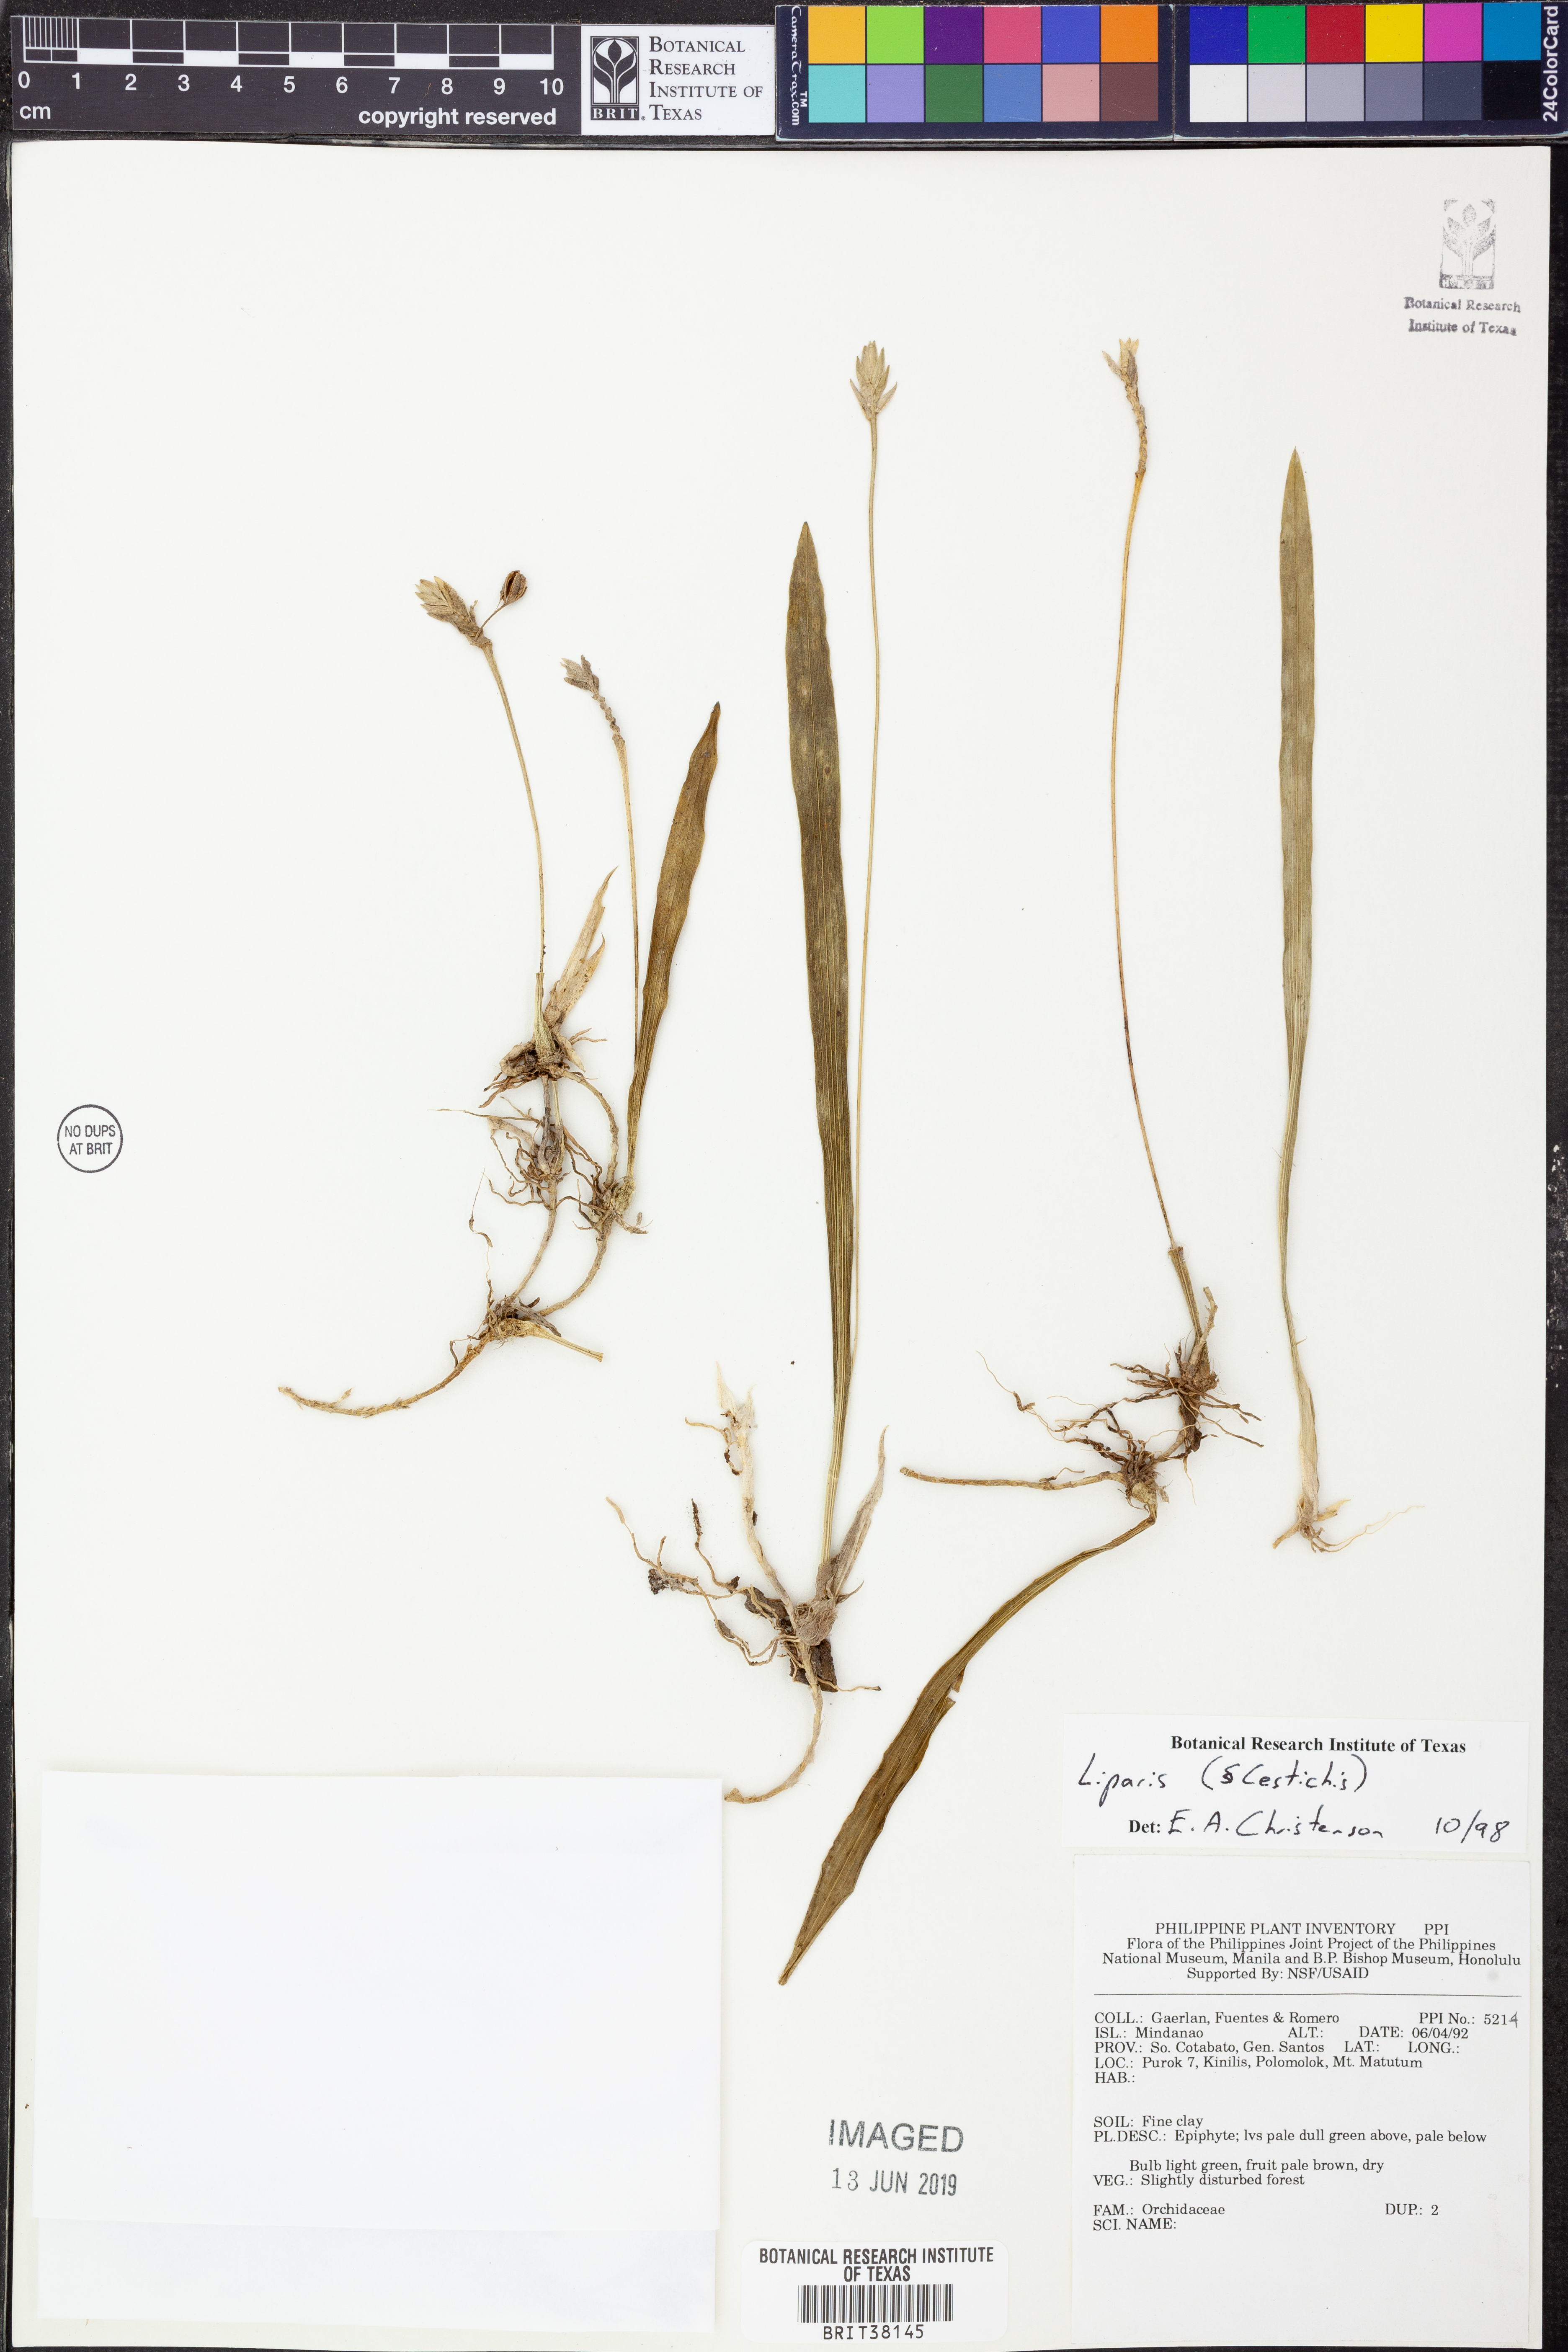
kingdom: Plantae
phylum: Tracheophyta
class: Liliopsida
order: Asparagales
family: Orchidaceae
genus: Liparis
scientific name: Liparis
